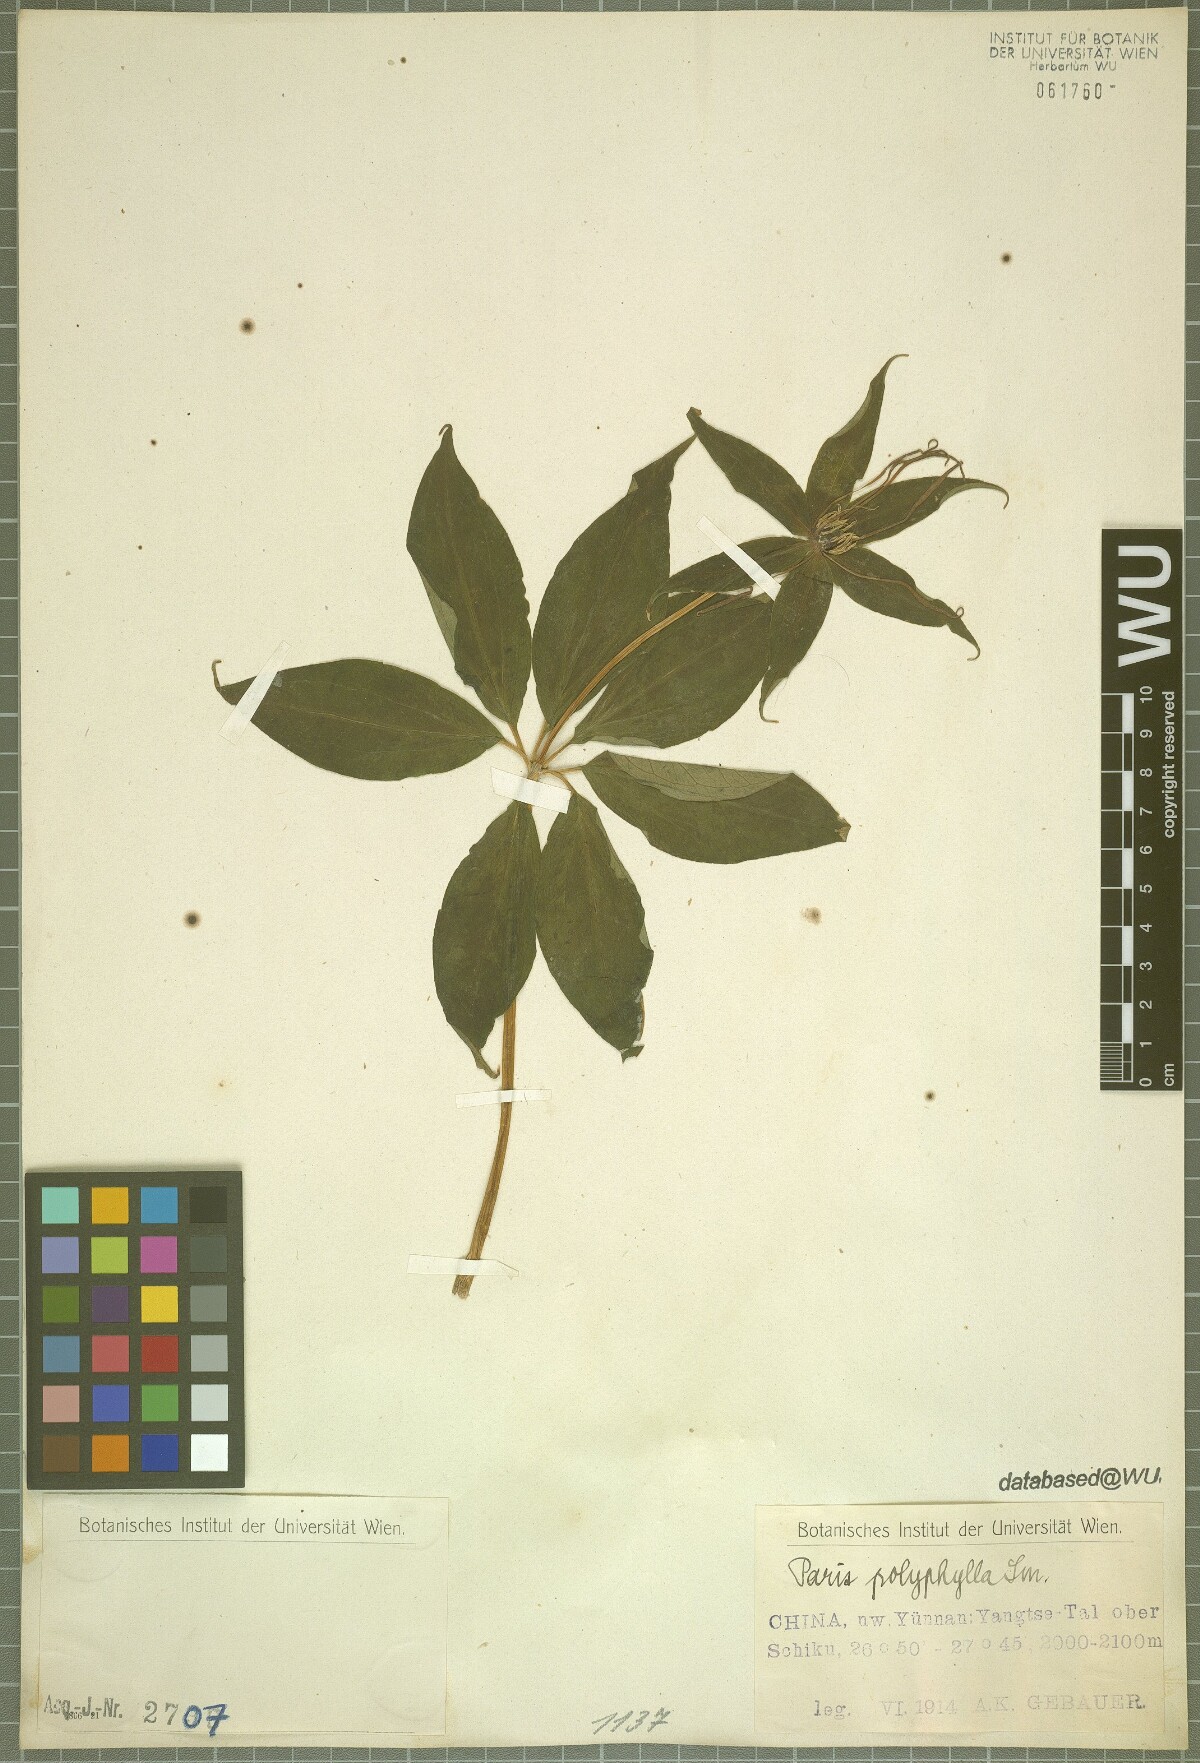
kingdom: Plantae
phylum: Tracheophyta
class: Liliopsida
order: Liliales
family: Melanthiaceae
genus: Paris
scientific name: Paris polyphylla
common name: Love apple
